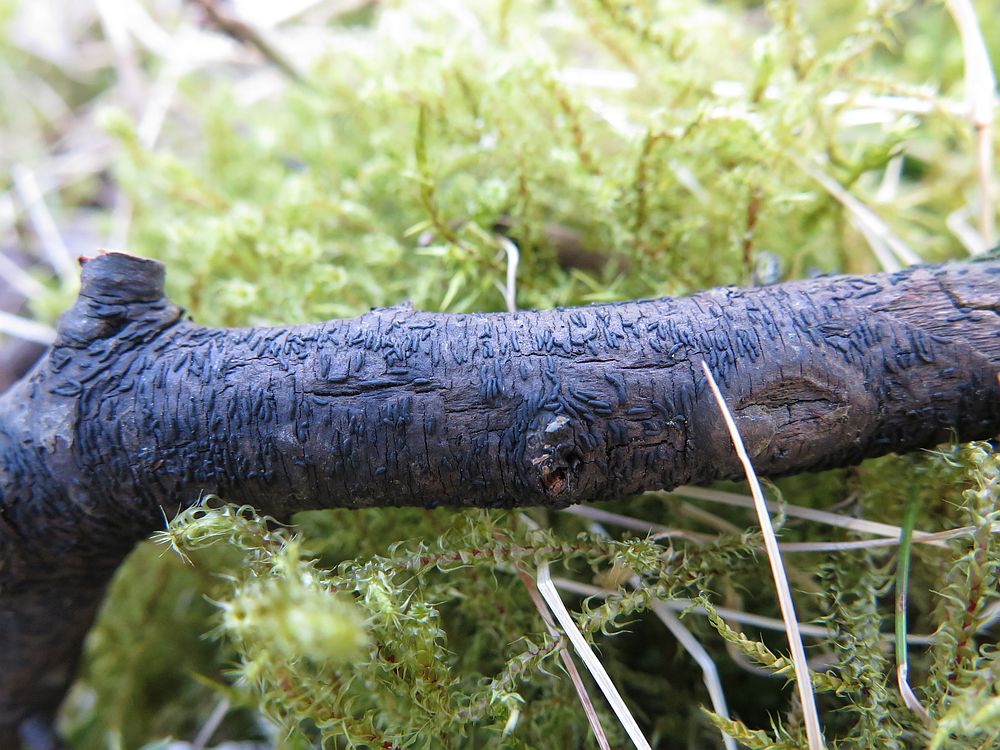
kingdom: Fungi
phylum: Ascomycota
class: Dothideomycetes
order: Hysteriales
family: Hysteriaceae
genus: Hysterium
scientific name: Hysterium acuminatum
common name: almindelig kulmund
